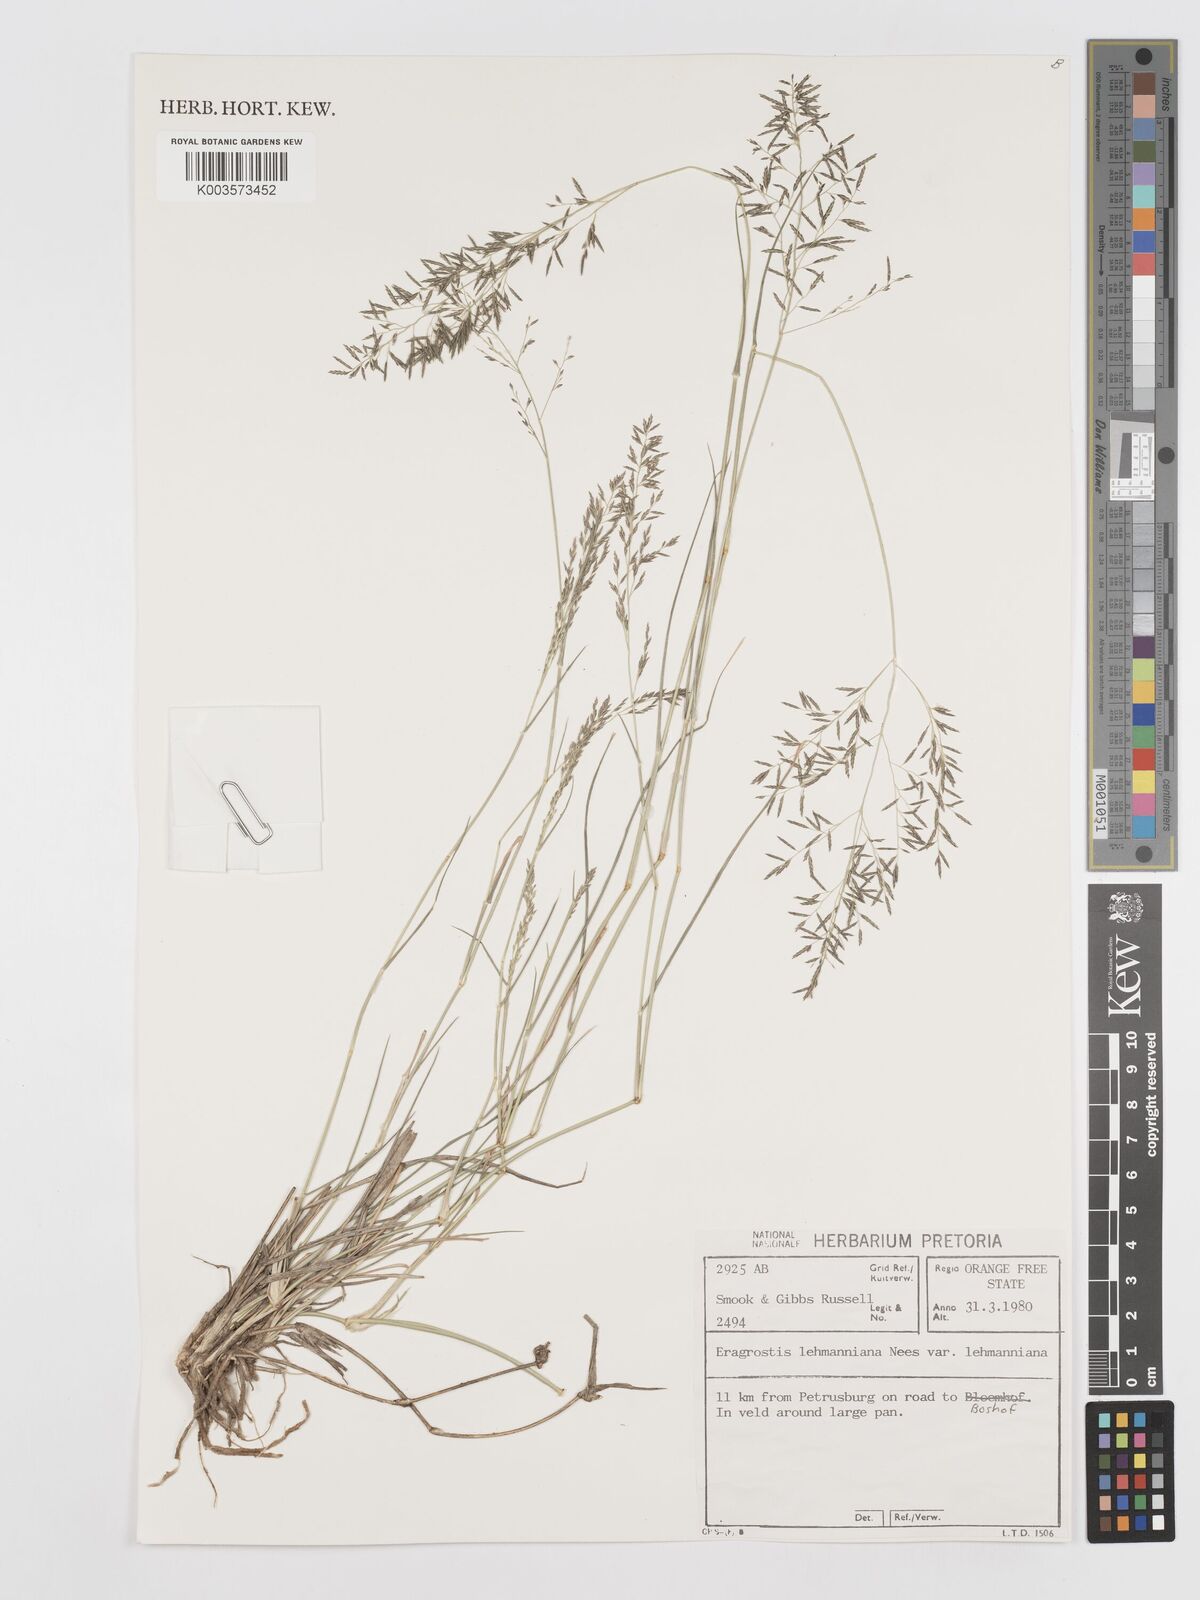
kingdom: Plantae
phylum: Tracheophyta
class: Liliopsida
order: Poales
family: Poaceae
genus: Eragrostis
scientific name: Eragrostis lehmanniana
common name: Lehmann lovegrass
